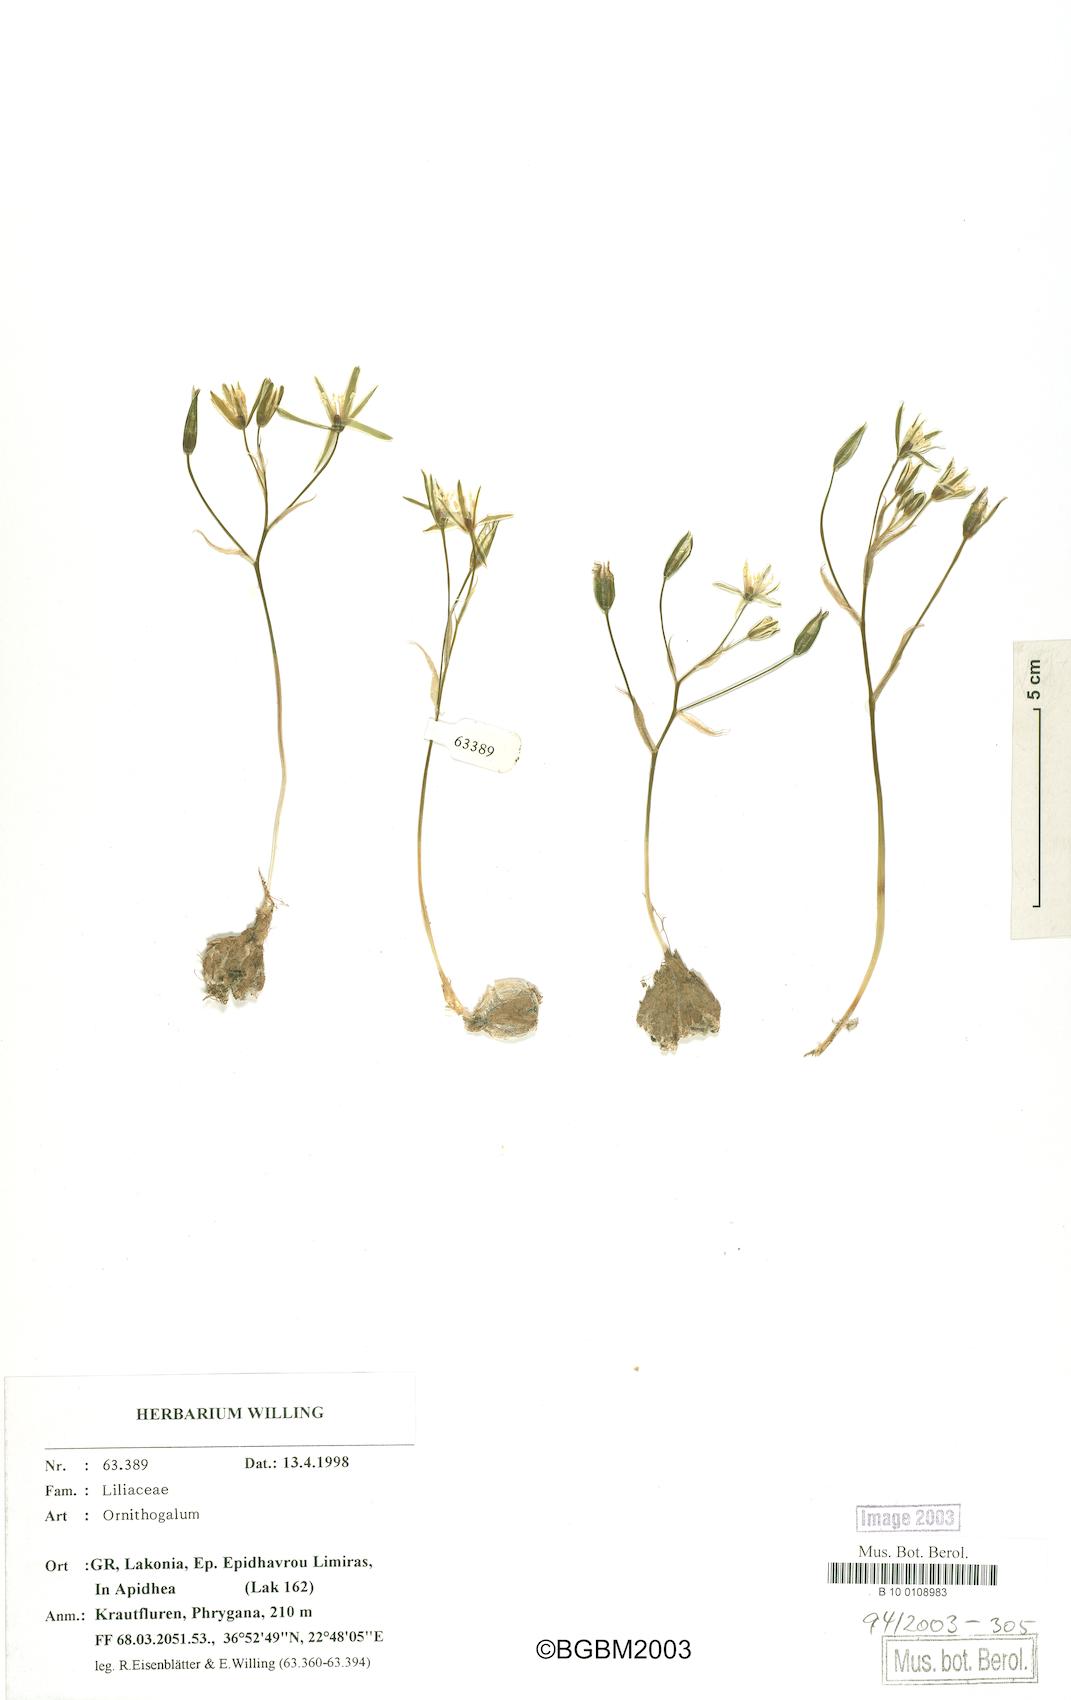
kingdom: Plantae
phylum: Tracheophyta
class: Liliopsida
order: Asparagales
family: Asparagaceae
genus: Ornithogalum
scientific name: Ornithogalum gussonei
